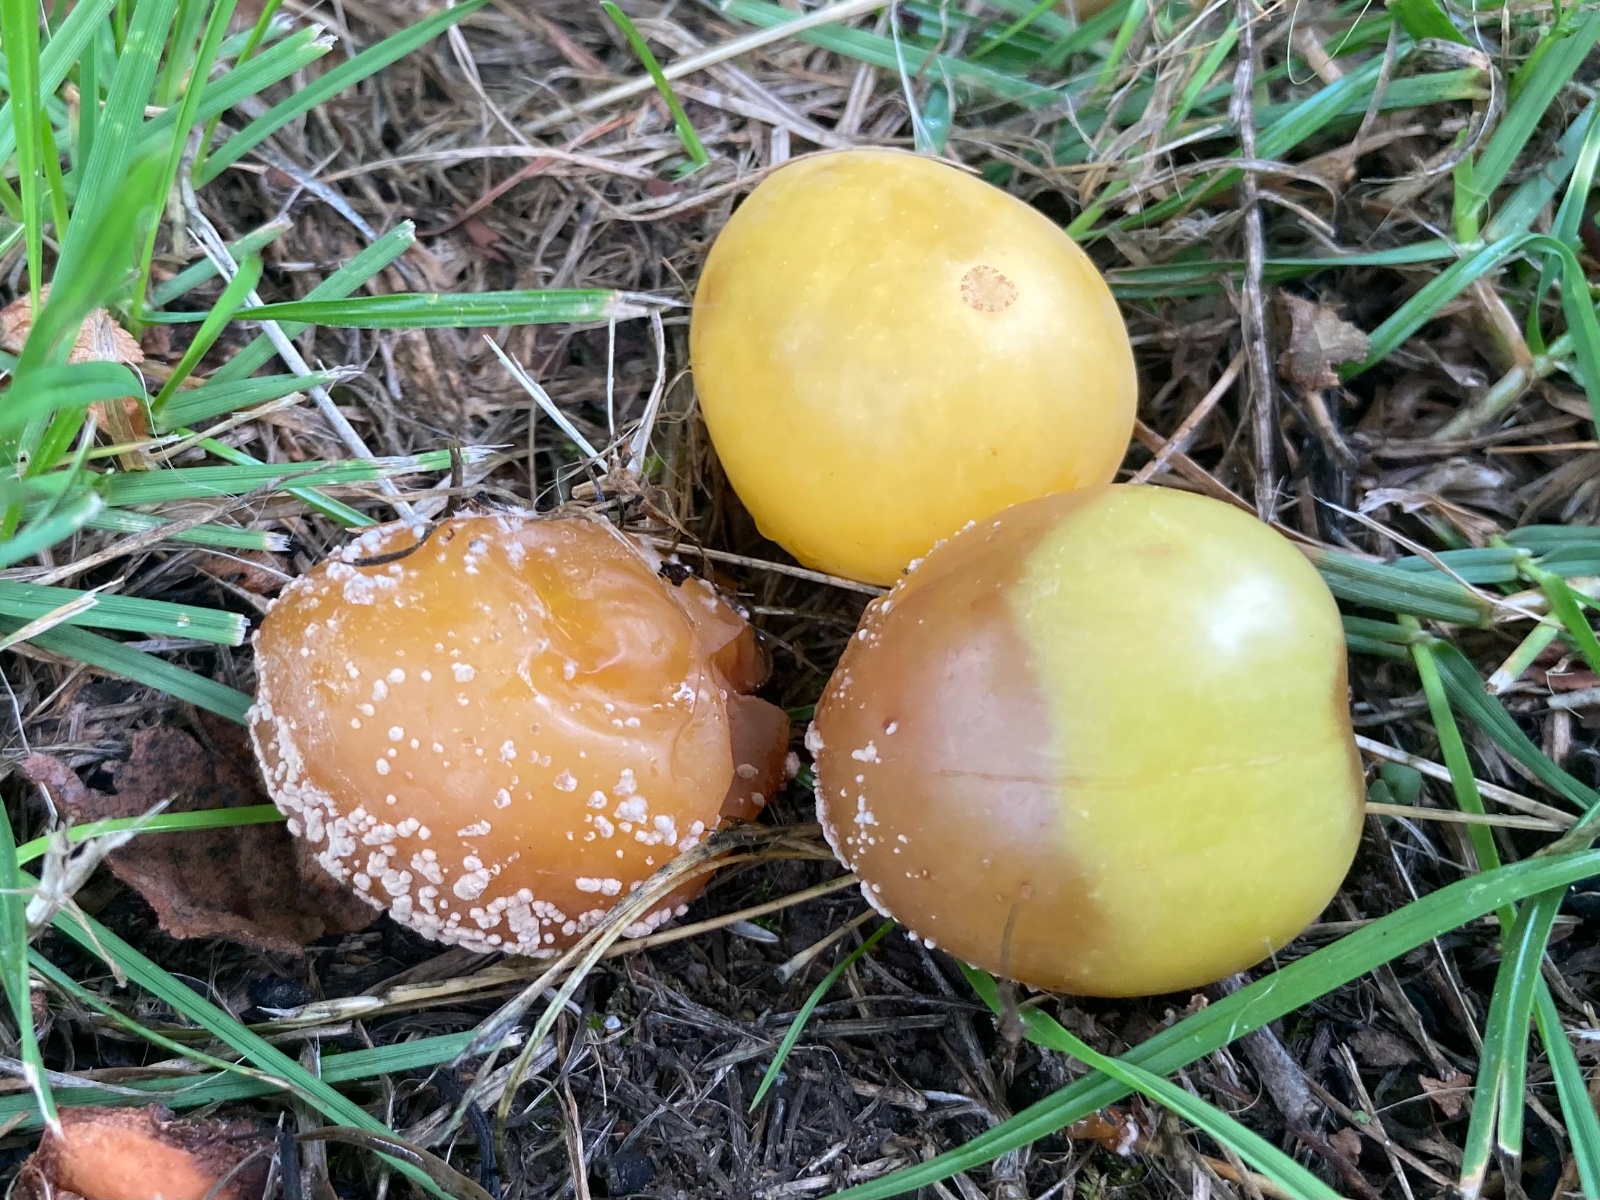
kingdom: Fungi
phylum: Ascomycota
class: Leotiomycetes
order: Helotiales
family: Sclerotiniaceae
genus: Monilinia
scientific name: Monilinia laxa
